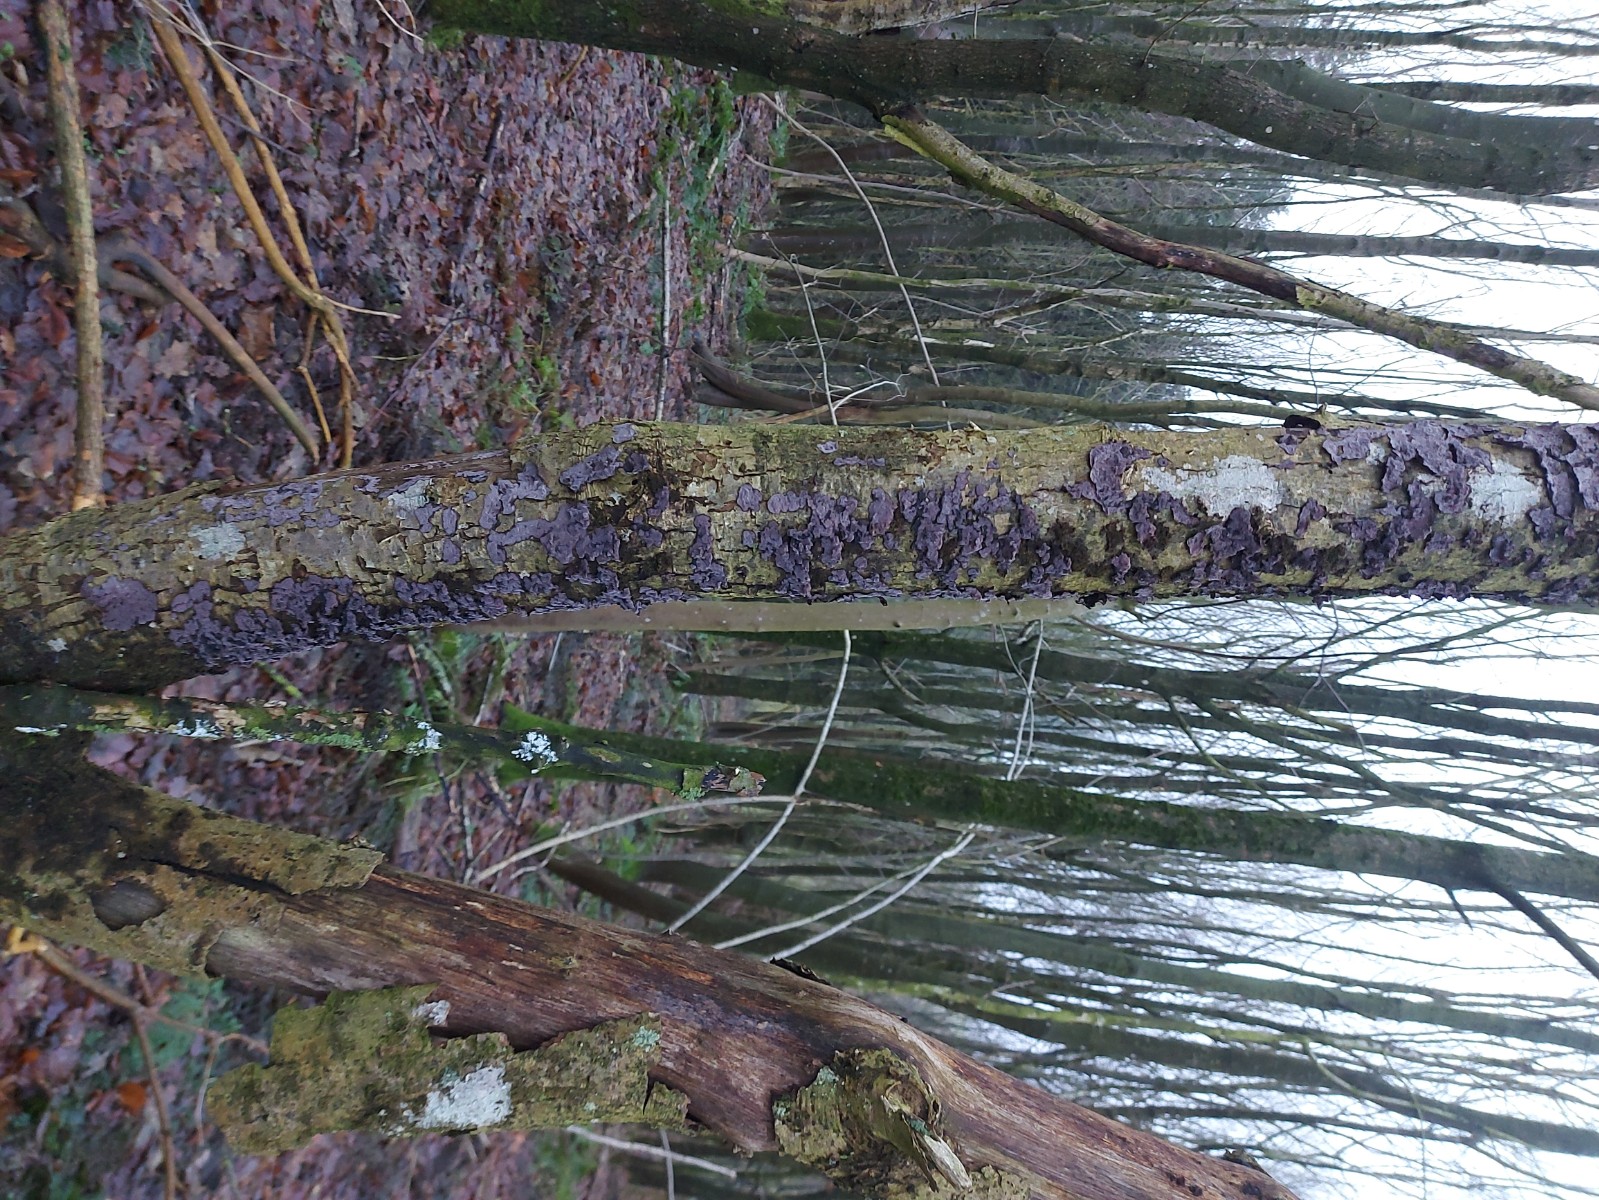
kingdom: Fungi
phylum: Basidiomycota
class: Agaricomycetes
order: Russulales
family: Peniophoraceae
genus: Peniophora
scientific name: Peniophora quercina
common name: ege-voksskind
